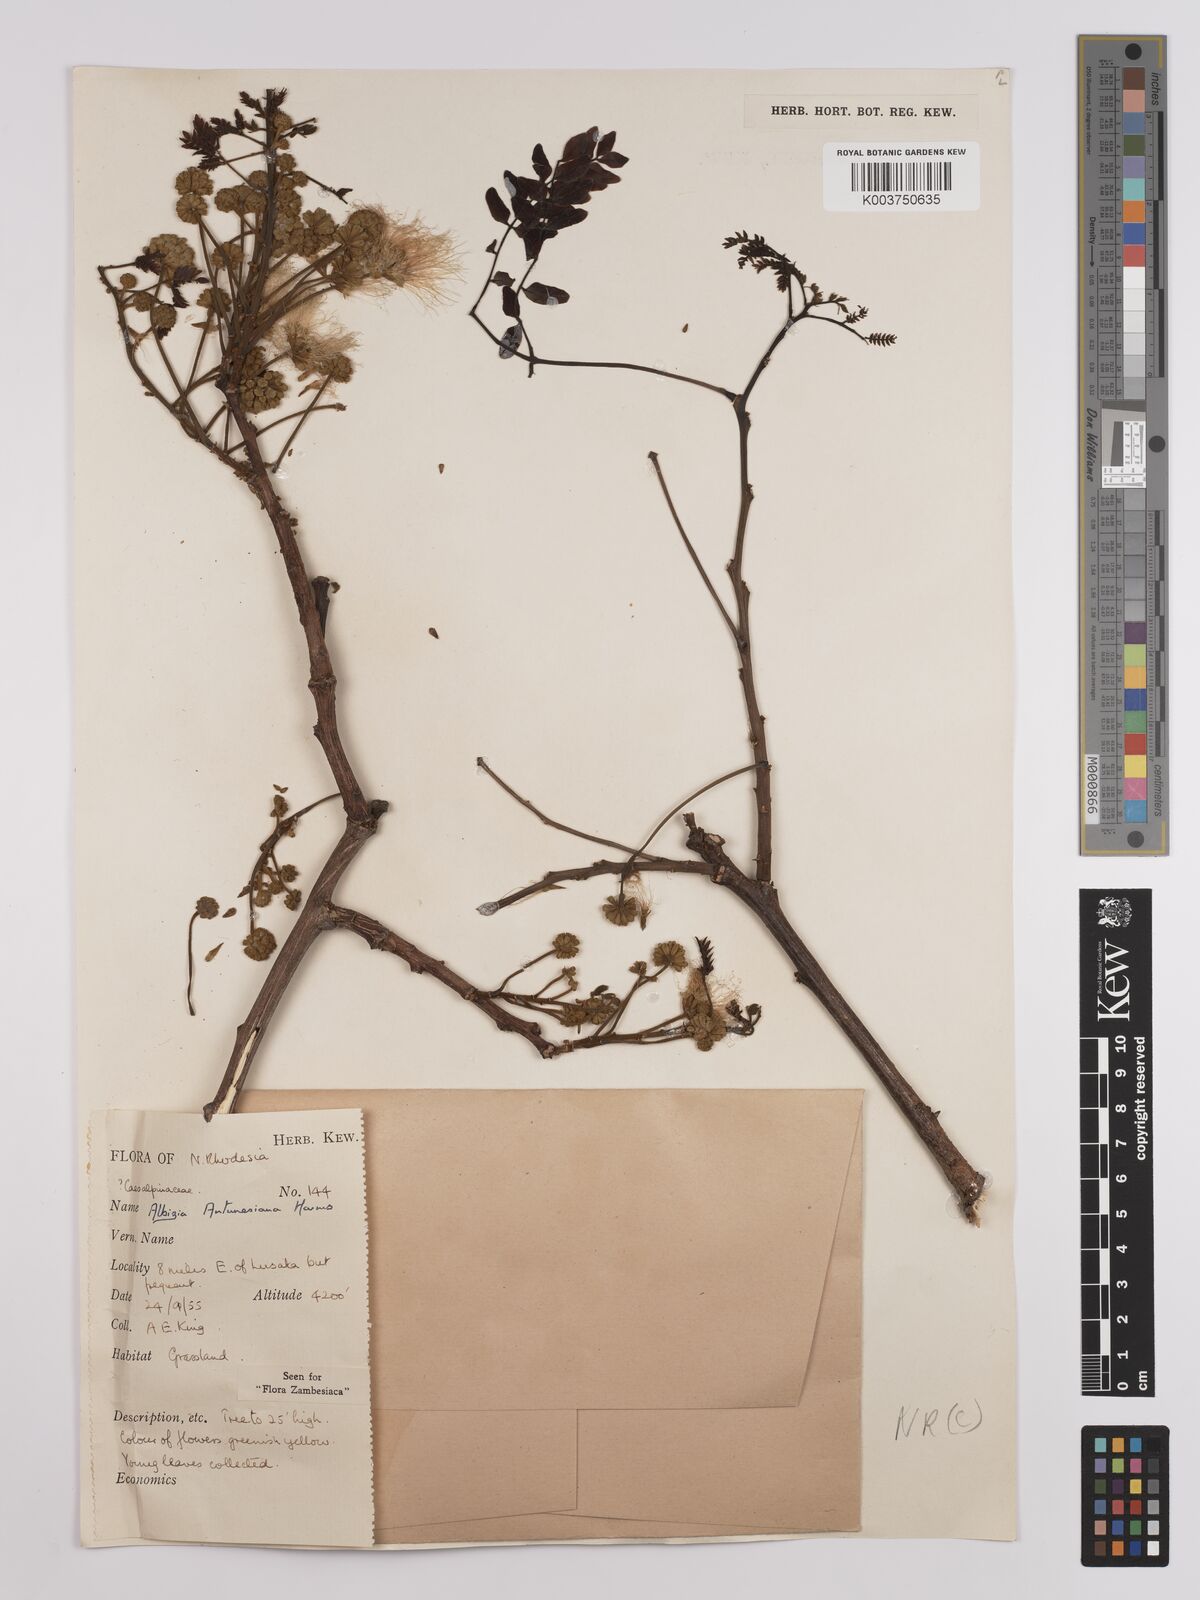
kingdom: Plantae
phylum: Tracheophyta
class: Magnoliopsida
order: Fabales
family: Fabaceae
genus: Albizia
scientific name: Albizia antunesiana
